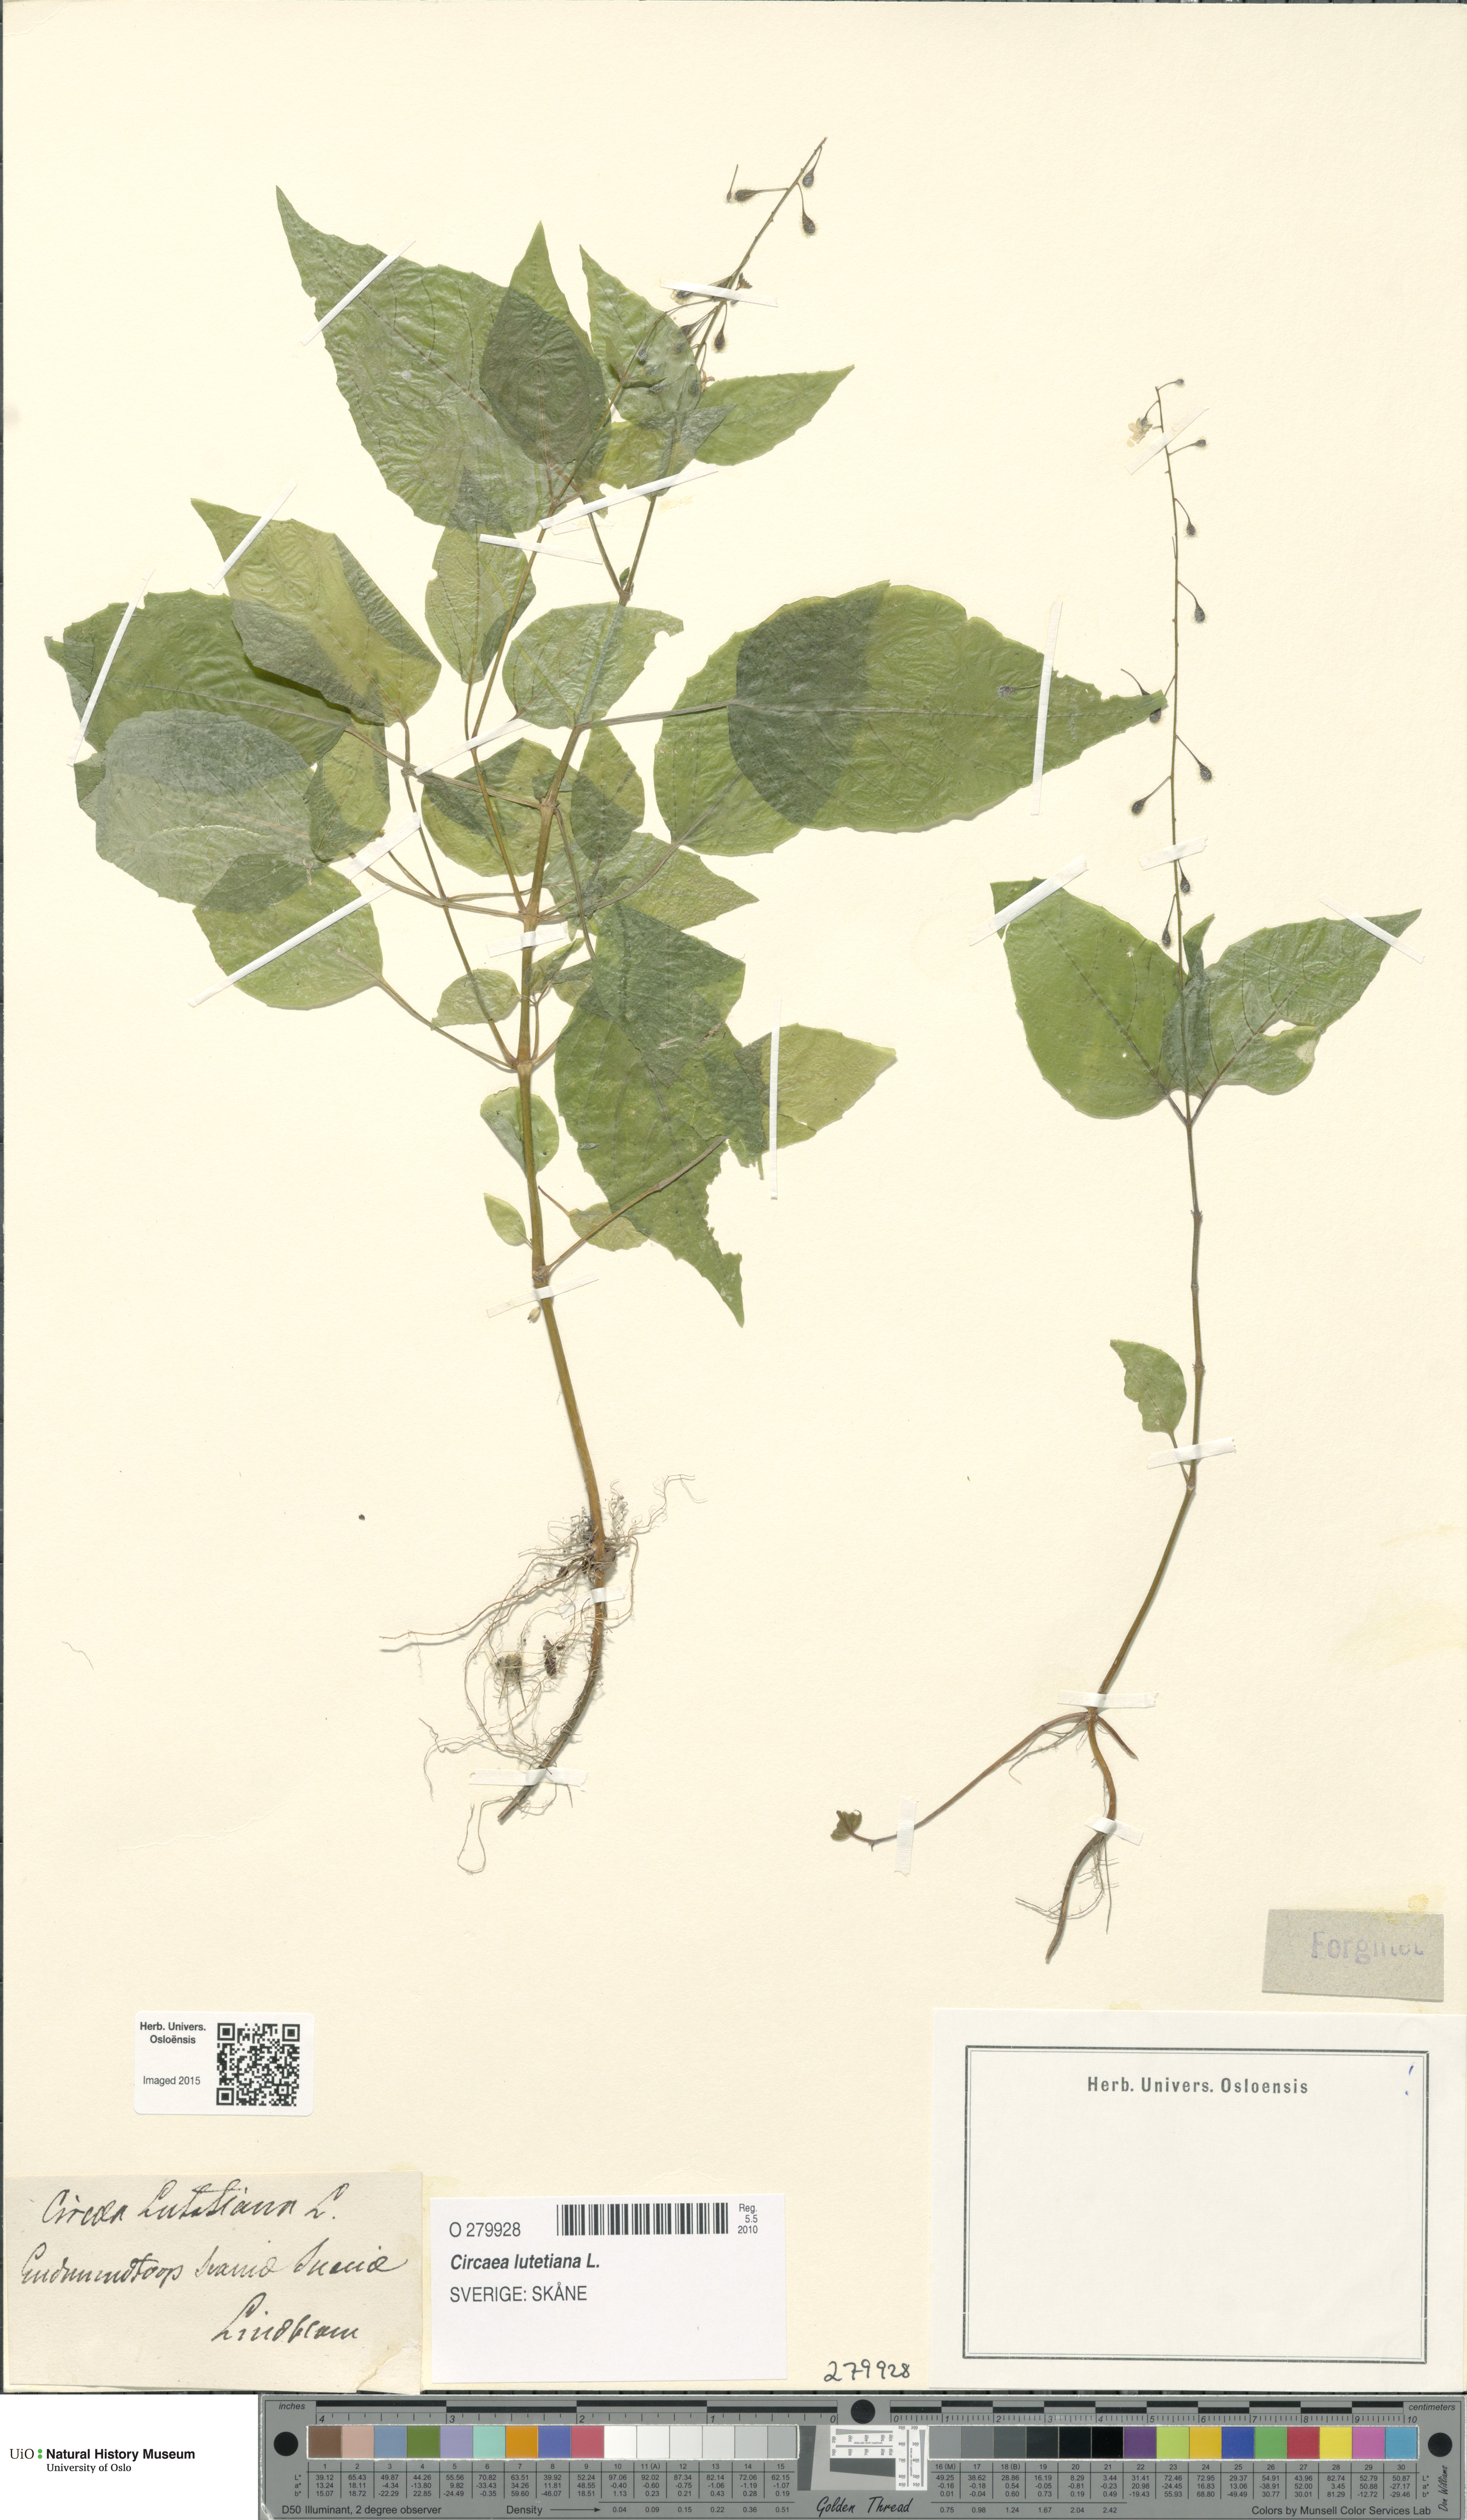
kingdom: Plantae
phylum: Tracheophyta
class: Magnoliopsida
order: Myrtales
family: Onagraceae
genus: Circaea
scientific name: Circaea lutetiana
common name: Enchanter's-nightshade
